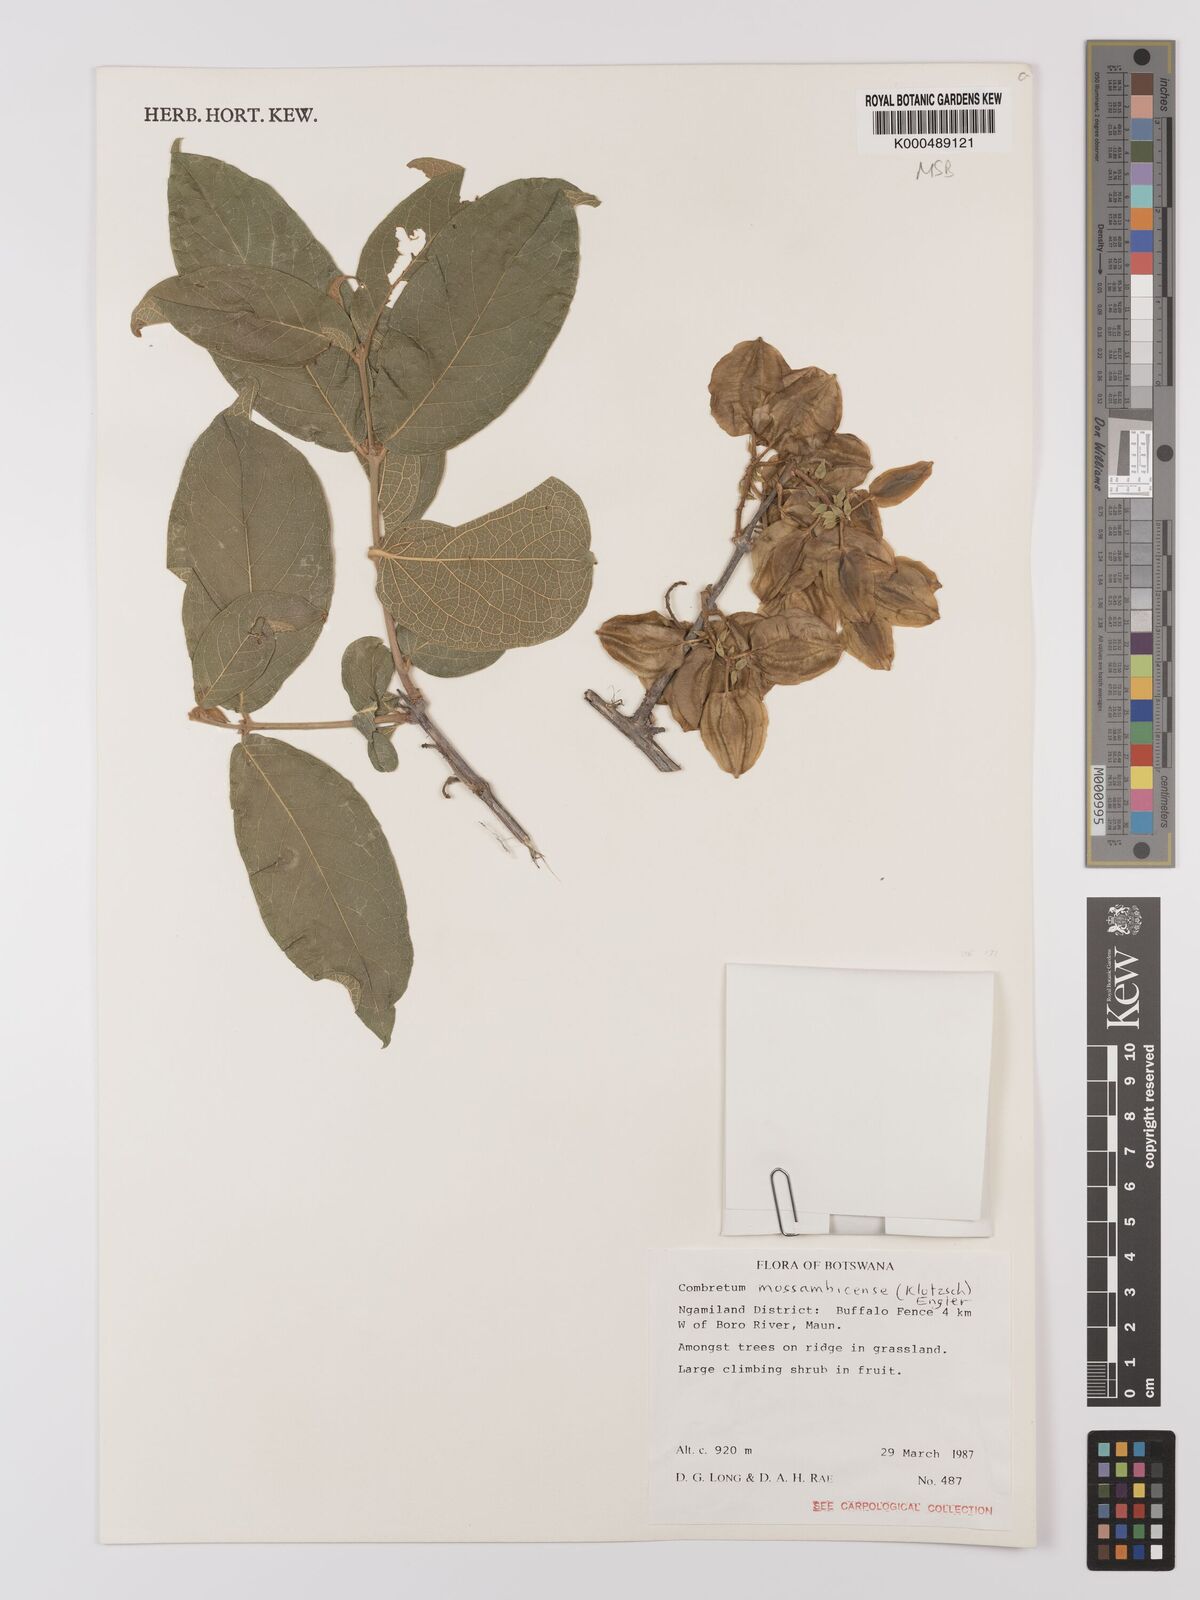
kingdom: Plantae
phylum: Tracheophyta
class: Magnoliopsida
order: Myrtales
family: Combretaceae
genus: Combretum
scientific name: Combretum mossambicense
